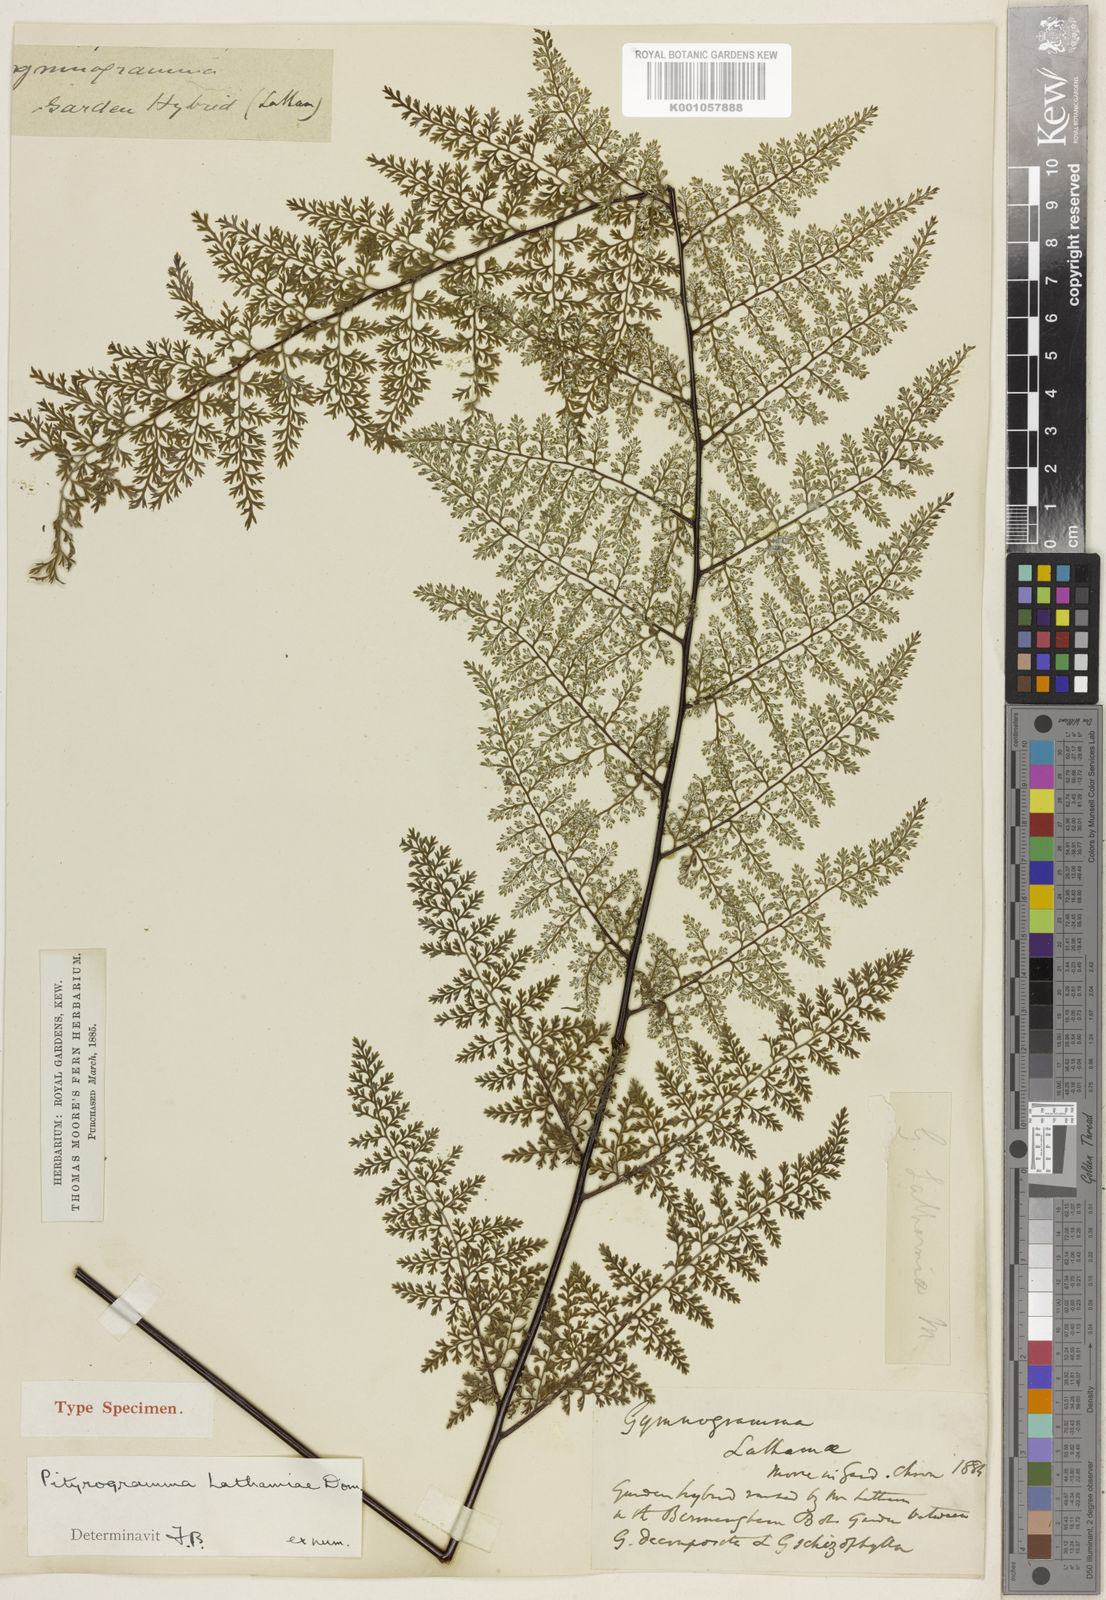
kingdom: Plantae
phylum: Tracheophyta
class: Polypodiopsida
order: Polypodiales
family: Pteridaceae
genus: Pityrogramma
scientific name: Pityrogramma
